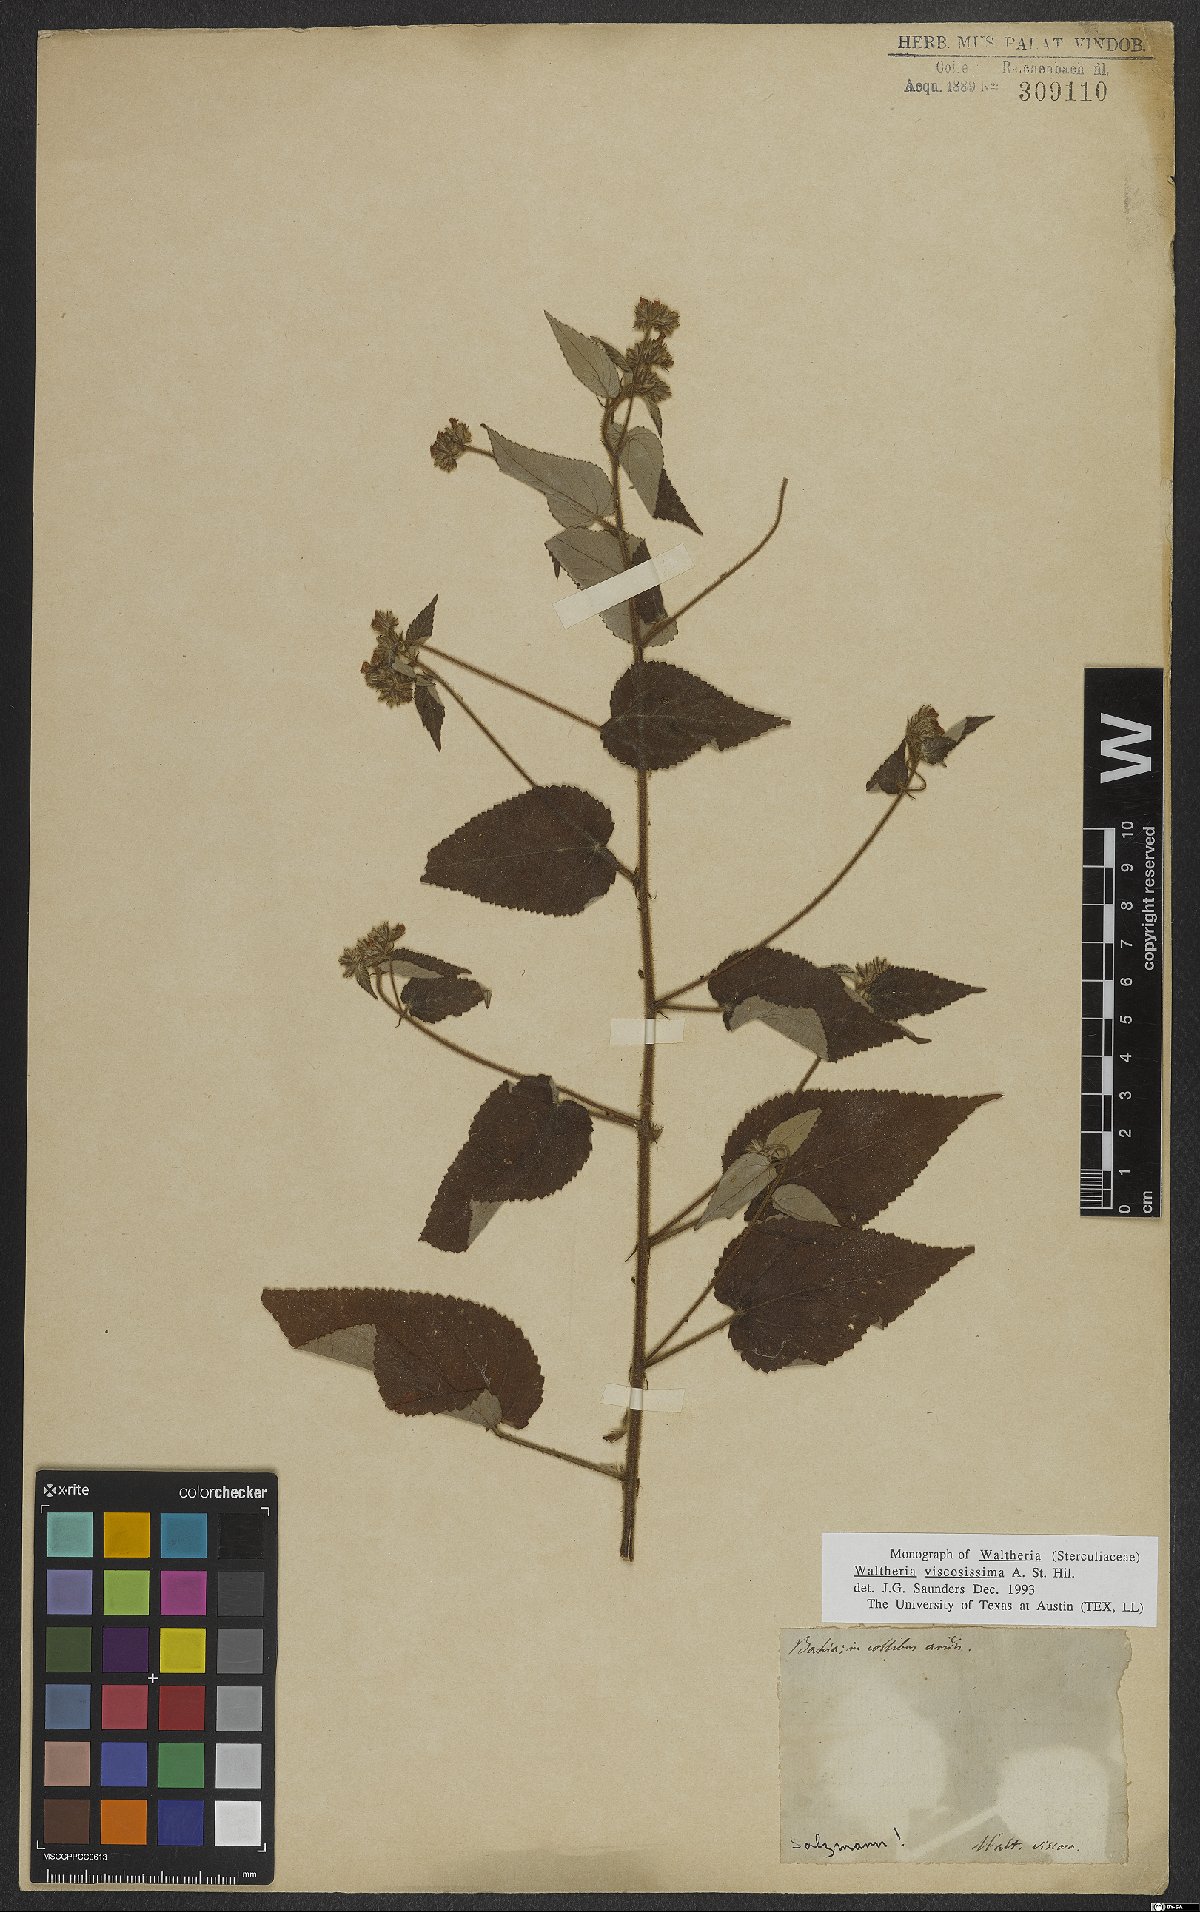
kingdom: Plantae
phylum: Tracheophyta
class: Magnoliopsida
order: Malvales
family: Malvaceae
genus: Waltheria
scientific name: Waltheria viscosissima
